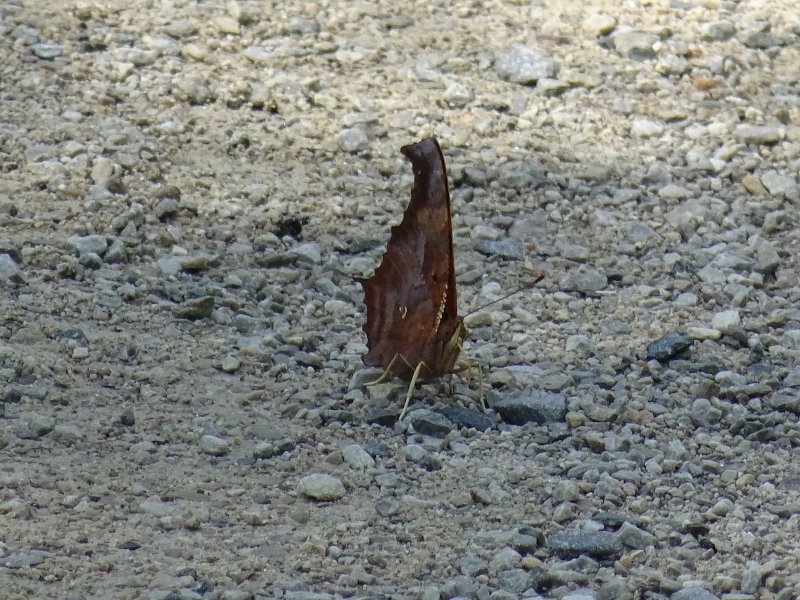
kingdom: Animalia
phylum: Arthropoda
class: Insecta
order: Lepidoptera
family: Nymphalidae
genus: Polygonia
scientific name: Polygonia interrogationis
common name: Question Mark
